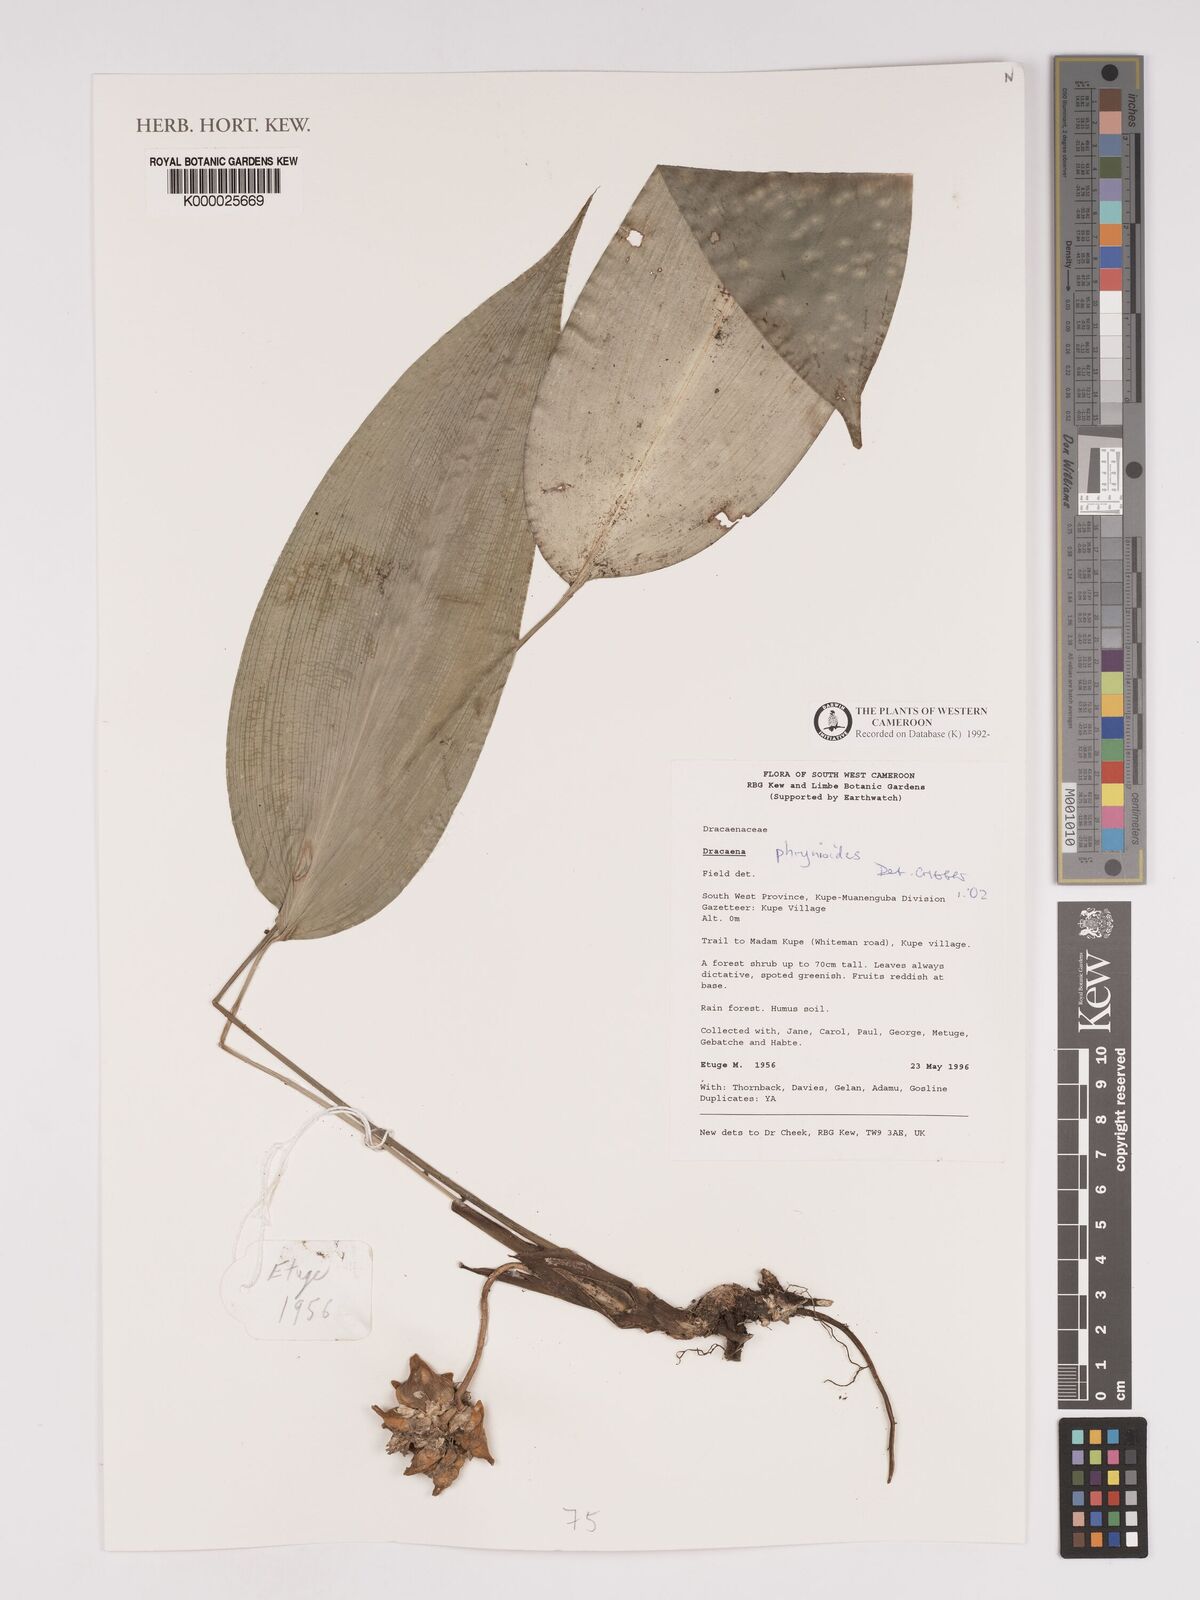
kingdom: Plantae
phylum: Tracheophyta
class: Liliopsida
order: Asparagales
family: Asparagaceae
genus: Dracaena
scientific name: Dracaena phrynioides
